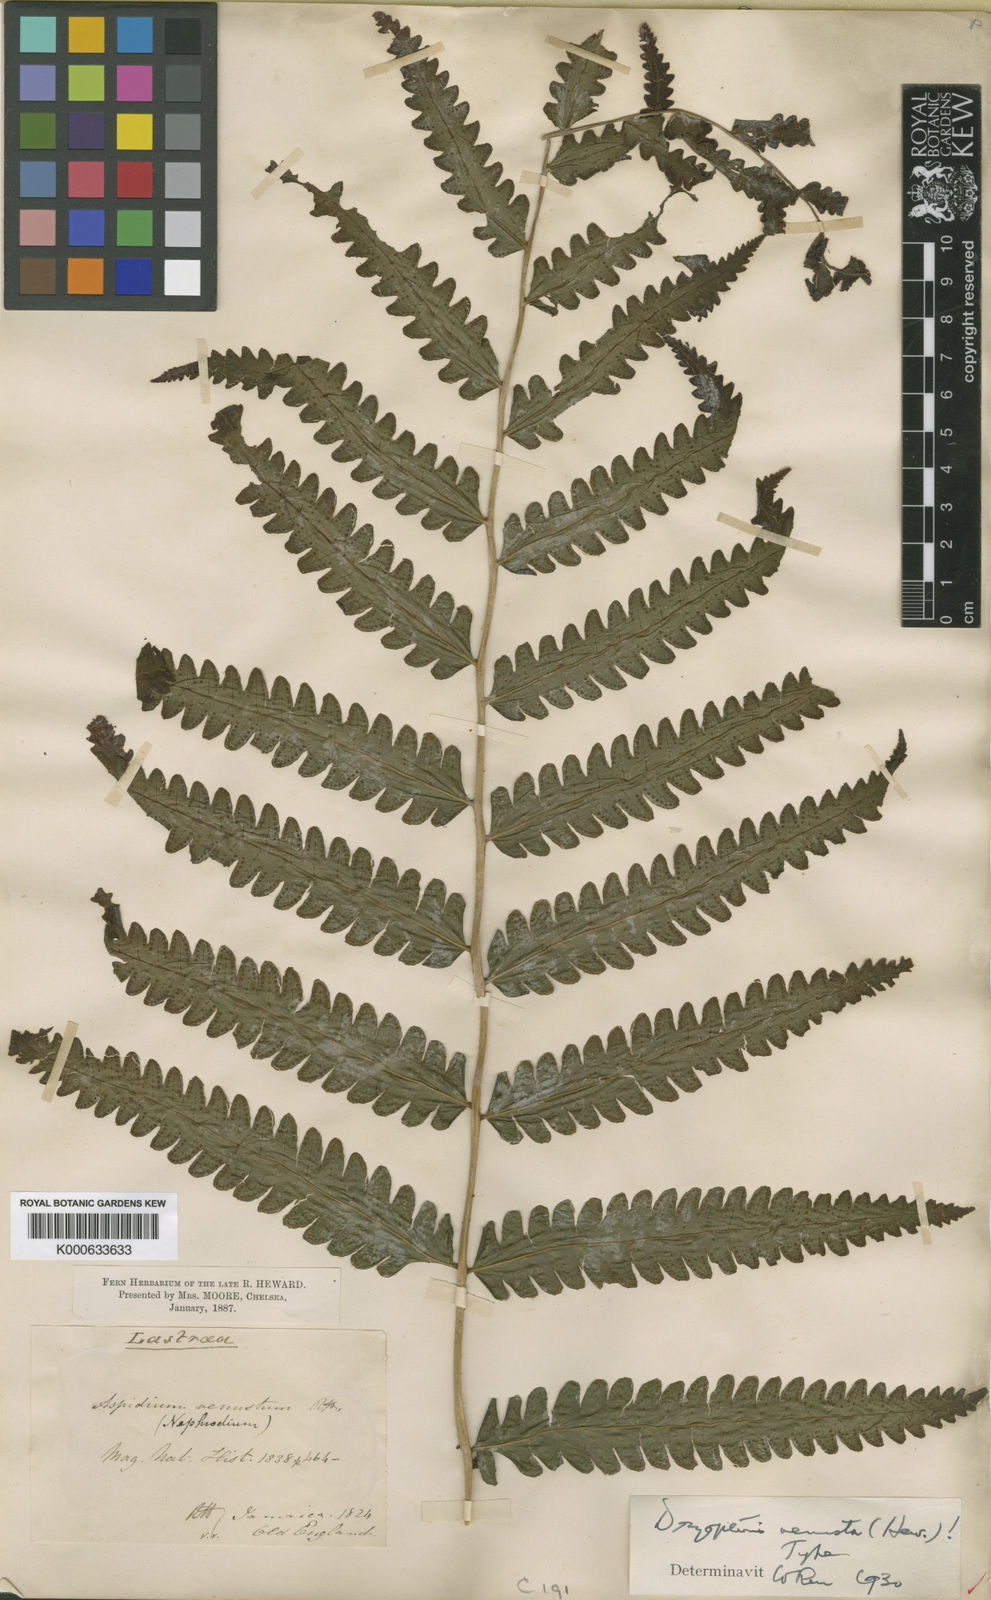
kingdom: Plantae
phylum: Tracheophyta
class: Polypodiopsida
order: Polypodiales
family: Thelypteridaceae
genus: Goniopteris
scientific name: Goniopteris venusta
